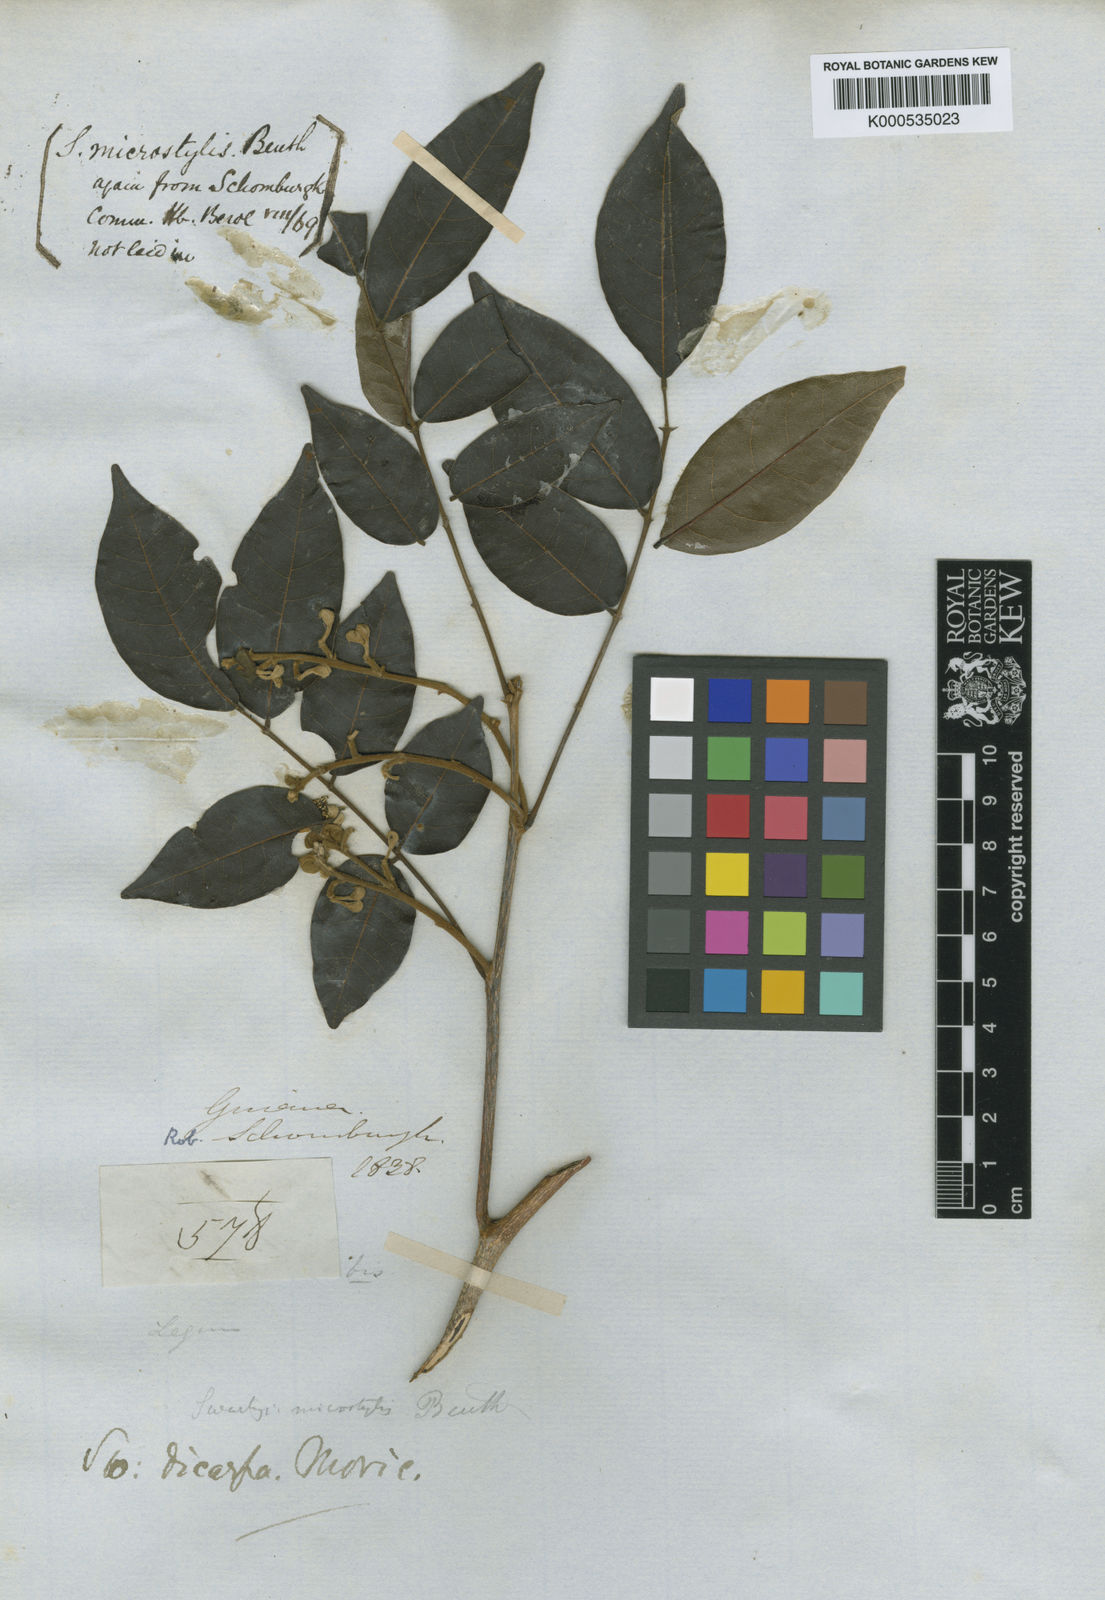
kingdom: Plantae
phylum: Tracheophyta
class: Magnoliopsida
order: Fabales
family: Fabaceae
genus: Swartzia
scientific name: Swartzia dipetala
